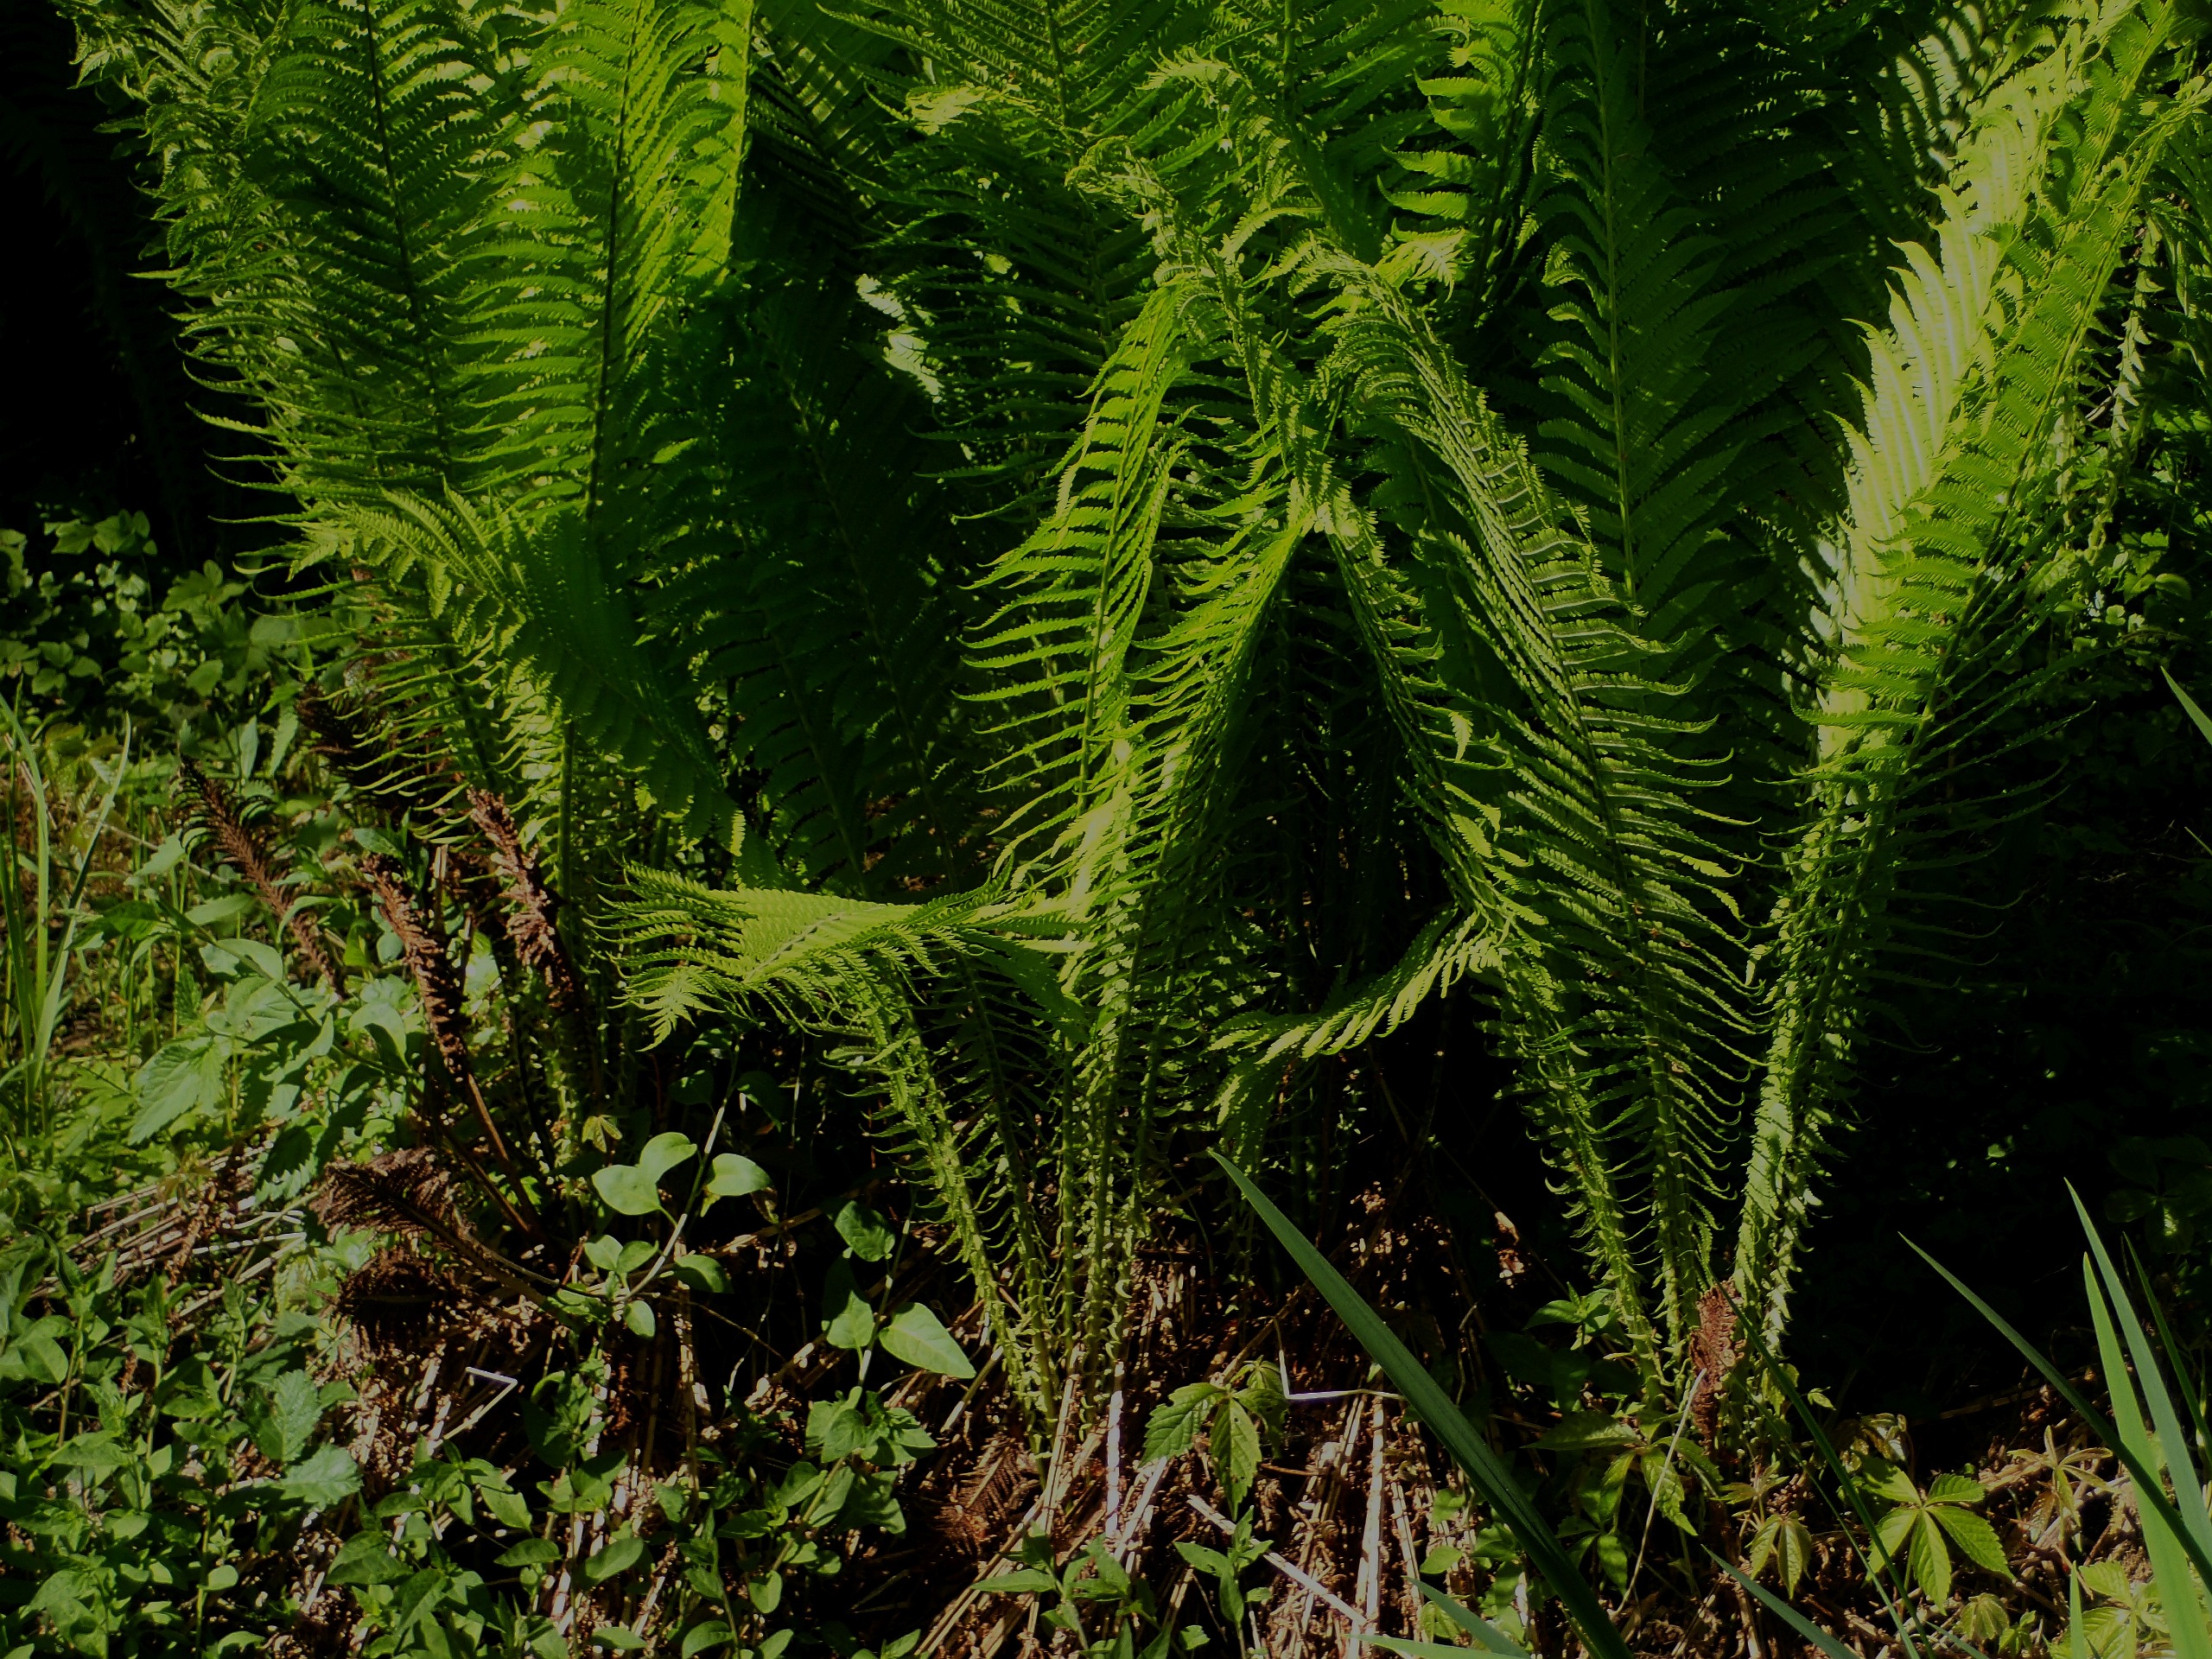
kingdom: Plantae
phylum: Tracheophyta
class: Polypodiopsida
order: Polypodiales
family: Onocleaceae
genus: Matteuccia
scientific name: Matteuccia struthiopteris
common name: Strudsvinge
